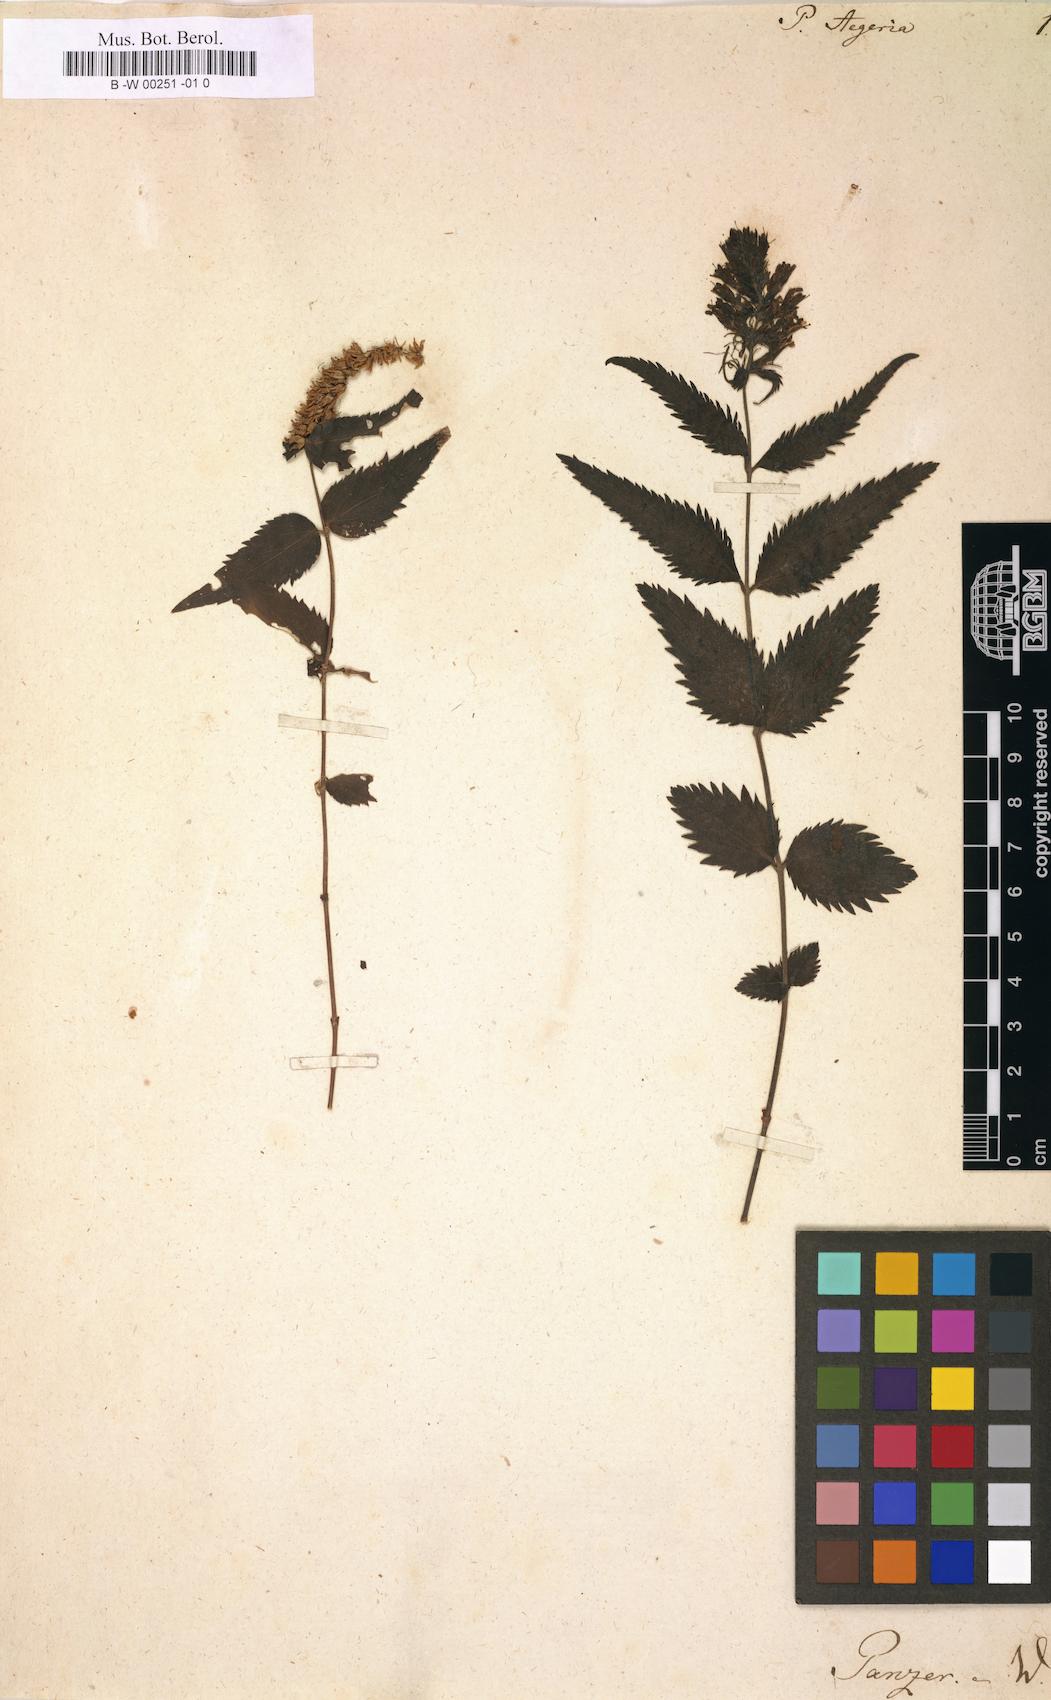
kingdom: Plantae
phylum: Tracheophyta
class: Magnoliopsida
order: Lamiales
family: Plantaginaceae
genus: Paederota
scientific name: Paederota
